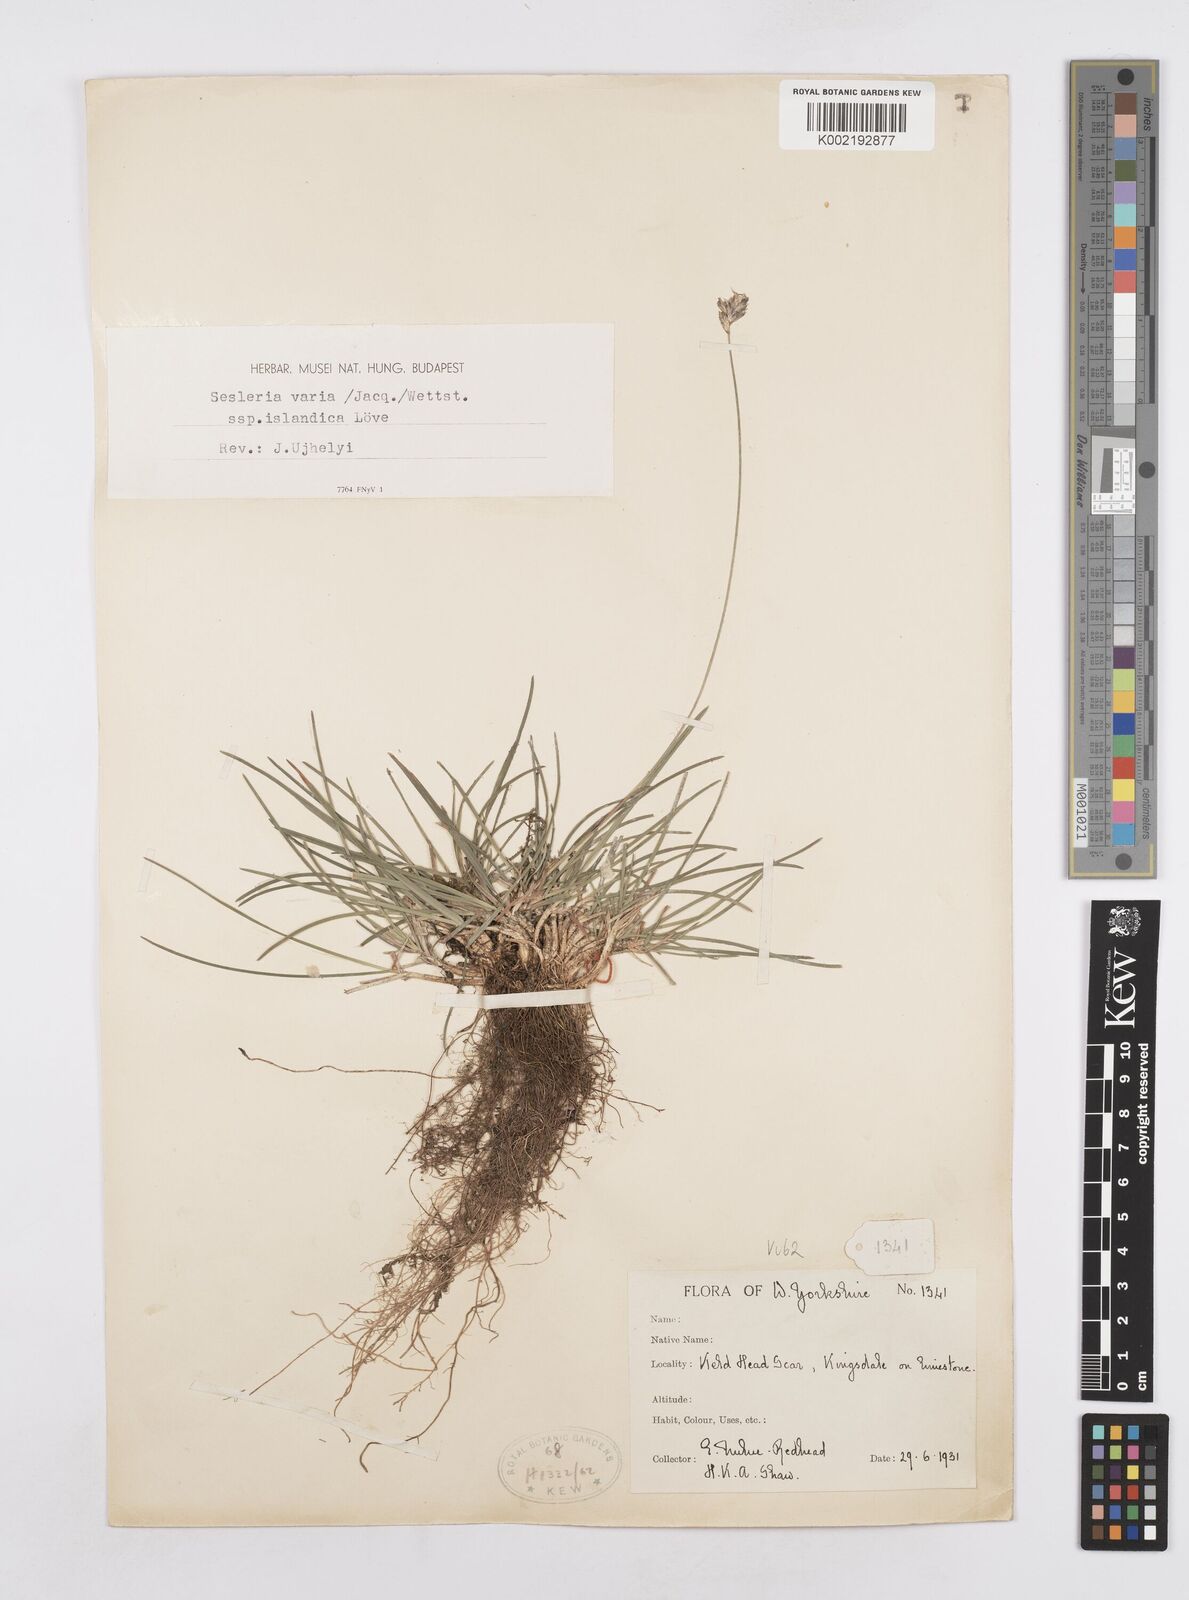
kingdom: Plantae
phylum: Tracheophyta
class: Liliopsida
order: Poales
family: Poaceae
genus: Sesleria
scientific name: Sesleria caerulea
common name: Blue moor-grass
